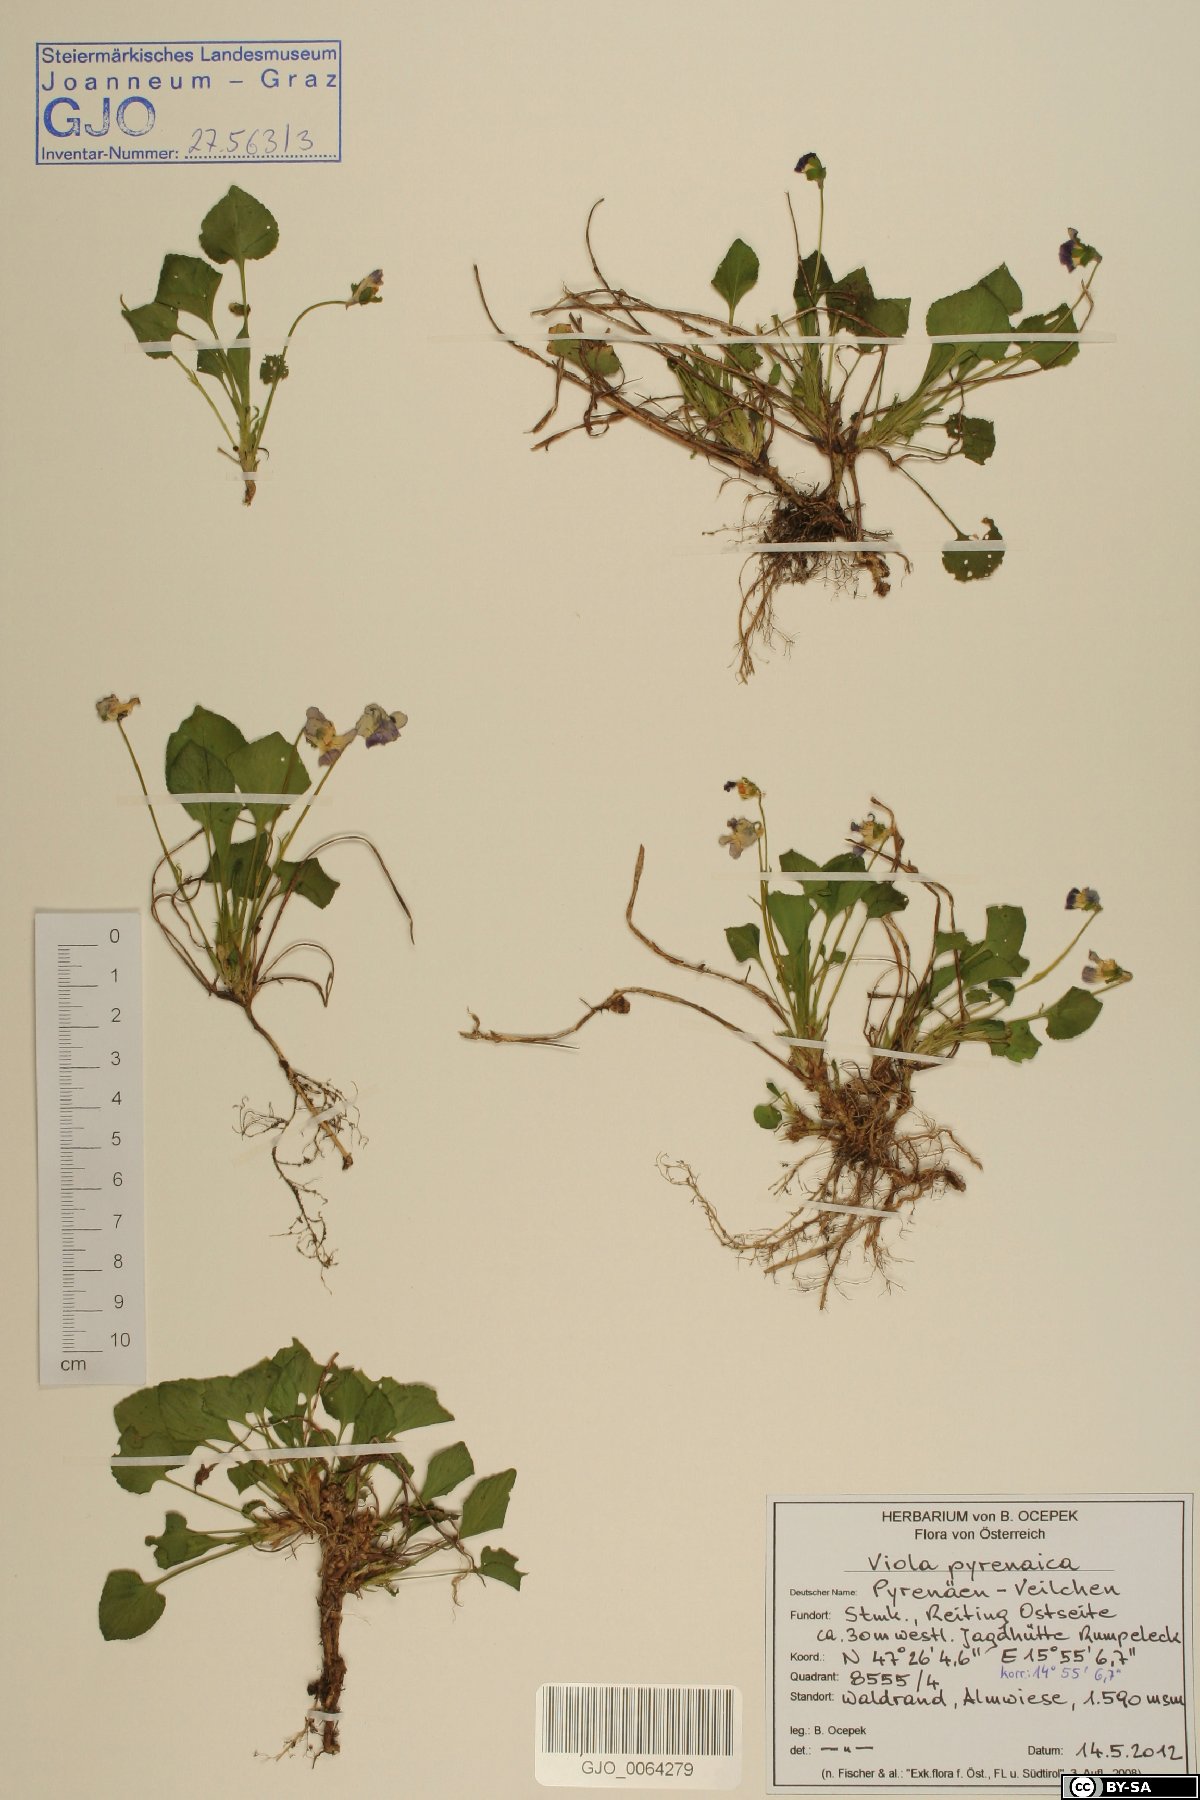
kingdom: Plantae
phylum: Tracheophyta
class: Magnoliopsida
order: Malpighiales
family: Violaceae
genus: Viola
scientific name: Viola pyrenaica
